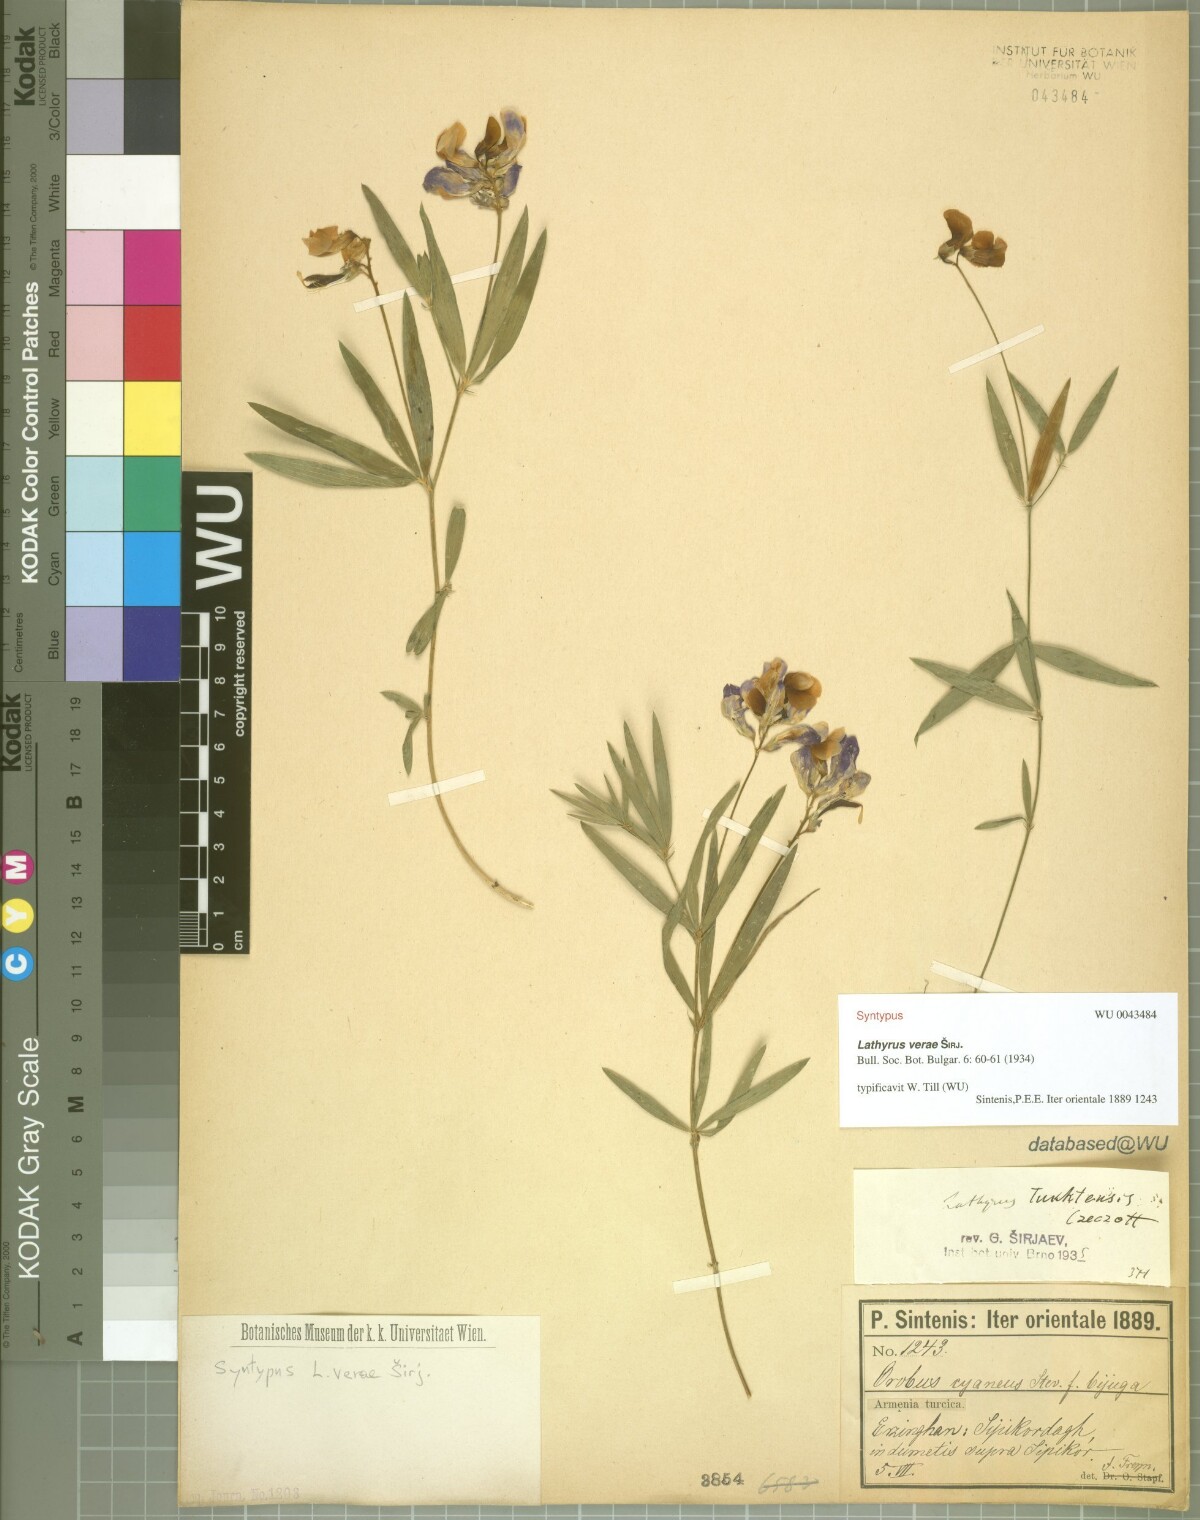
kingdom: Plantae
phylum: Tracheophyta
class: Magnoliopsida
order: Fabales
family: Fabaceae
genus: Lathyrus
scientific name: Lathyrus tukhtensis
